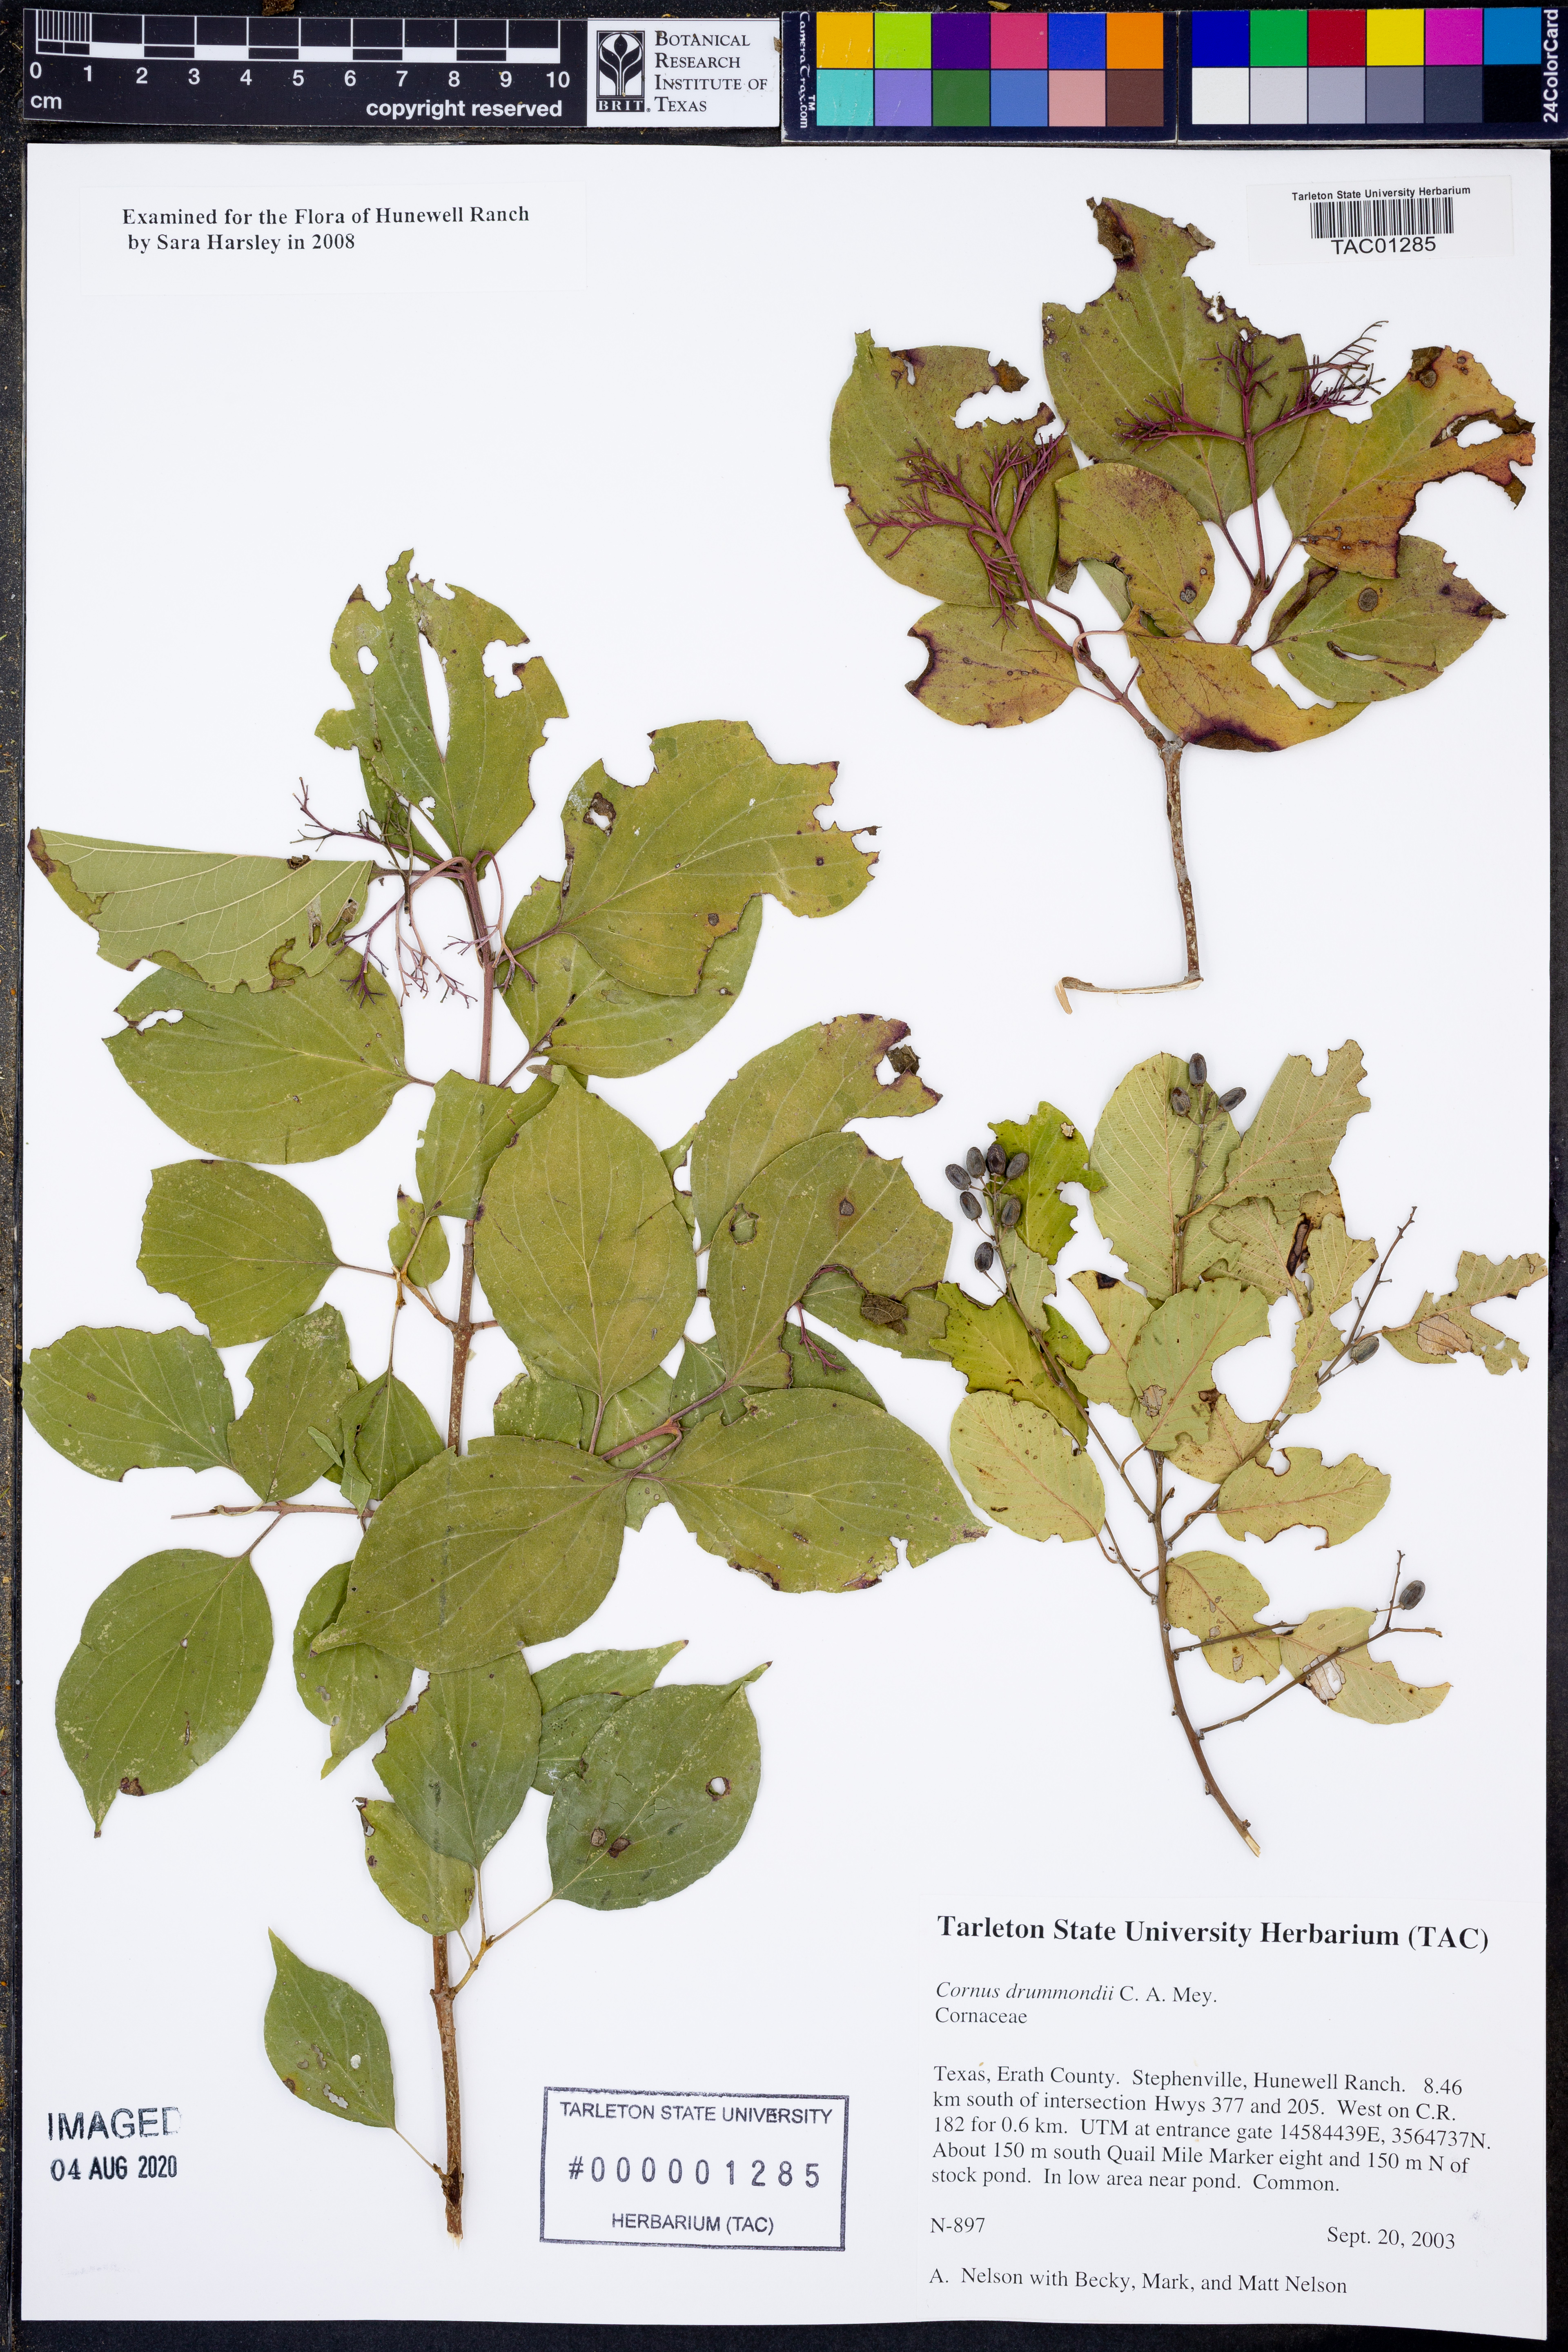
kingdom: Plantae
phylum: Tracheophyta
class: Magnoliopsida
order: Cornales
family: Cornaceae
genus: Cornus
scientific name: Cornus drummondii
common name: Rough-leaf dogwood
